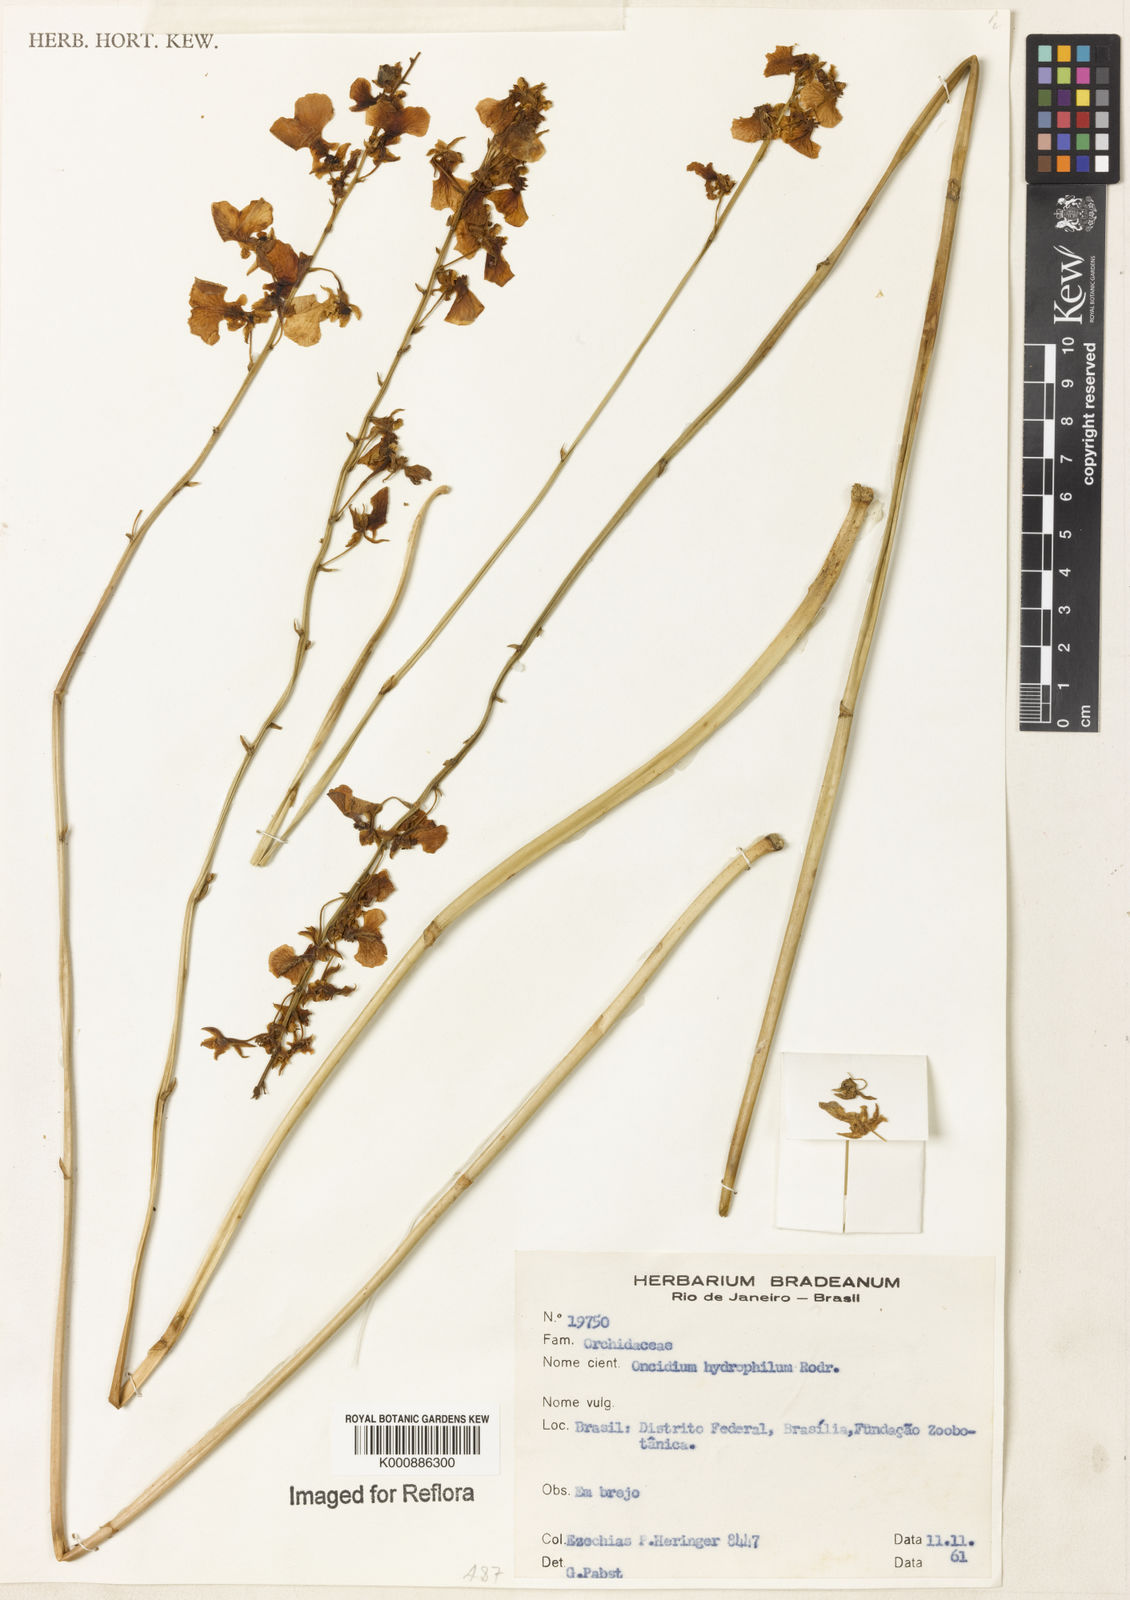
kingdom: Plantae
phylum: Tracheophyta
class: Liliopsida
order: Asparagales
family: Orchidaceae
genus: Gomesa
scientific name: Gomesa hydrophila
